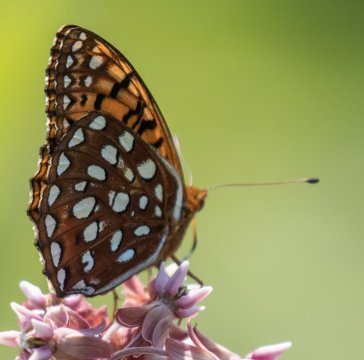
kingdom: Animalia
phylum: Arthropoda
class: Insecta
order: Lepidoptera
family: Nymphalidae
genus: Speyeria
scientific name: Speyeria atlantis
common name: Atlantis Fritillary
